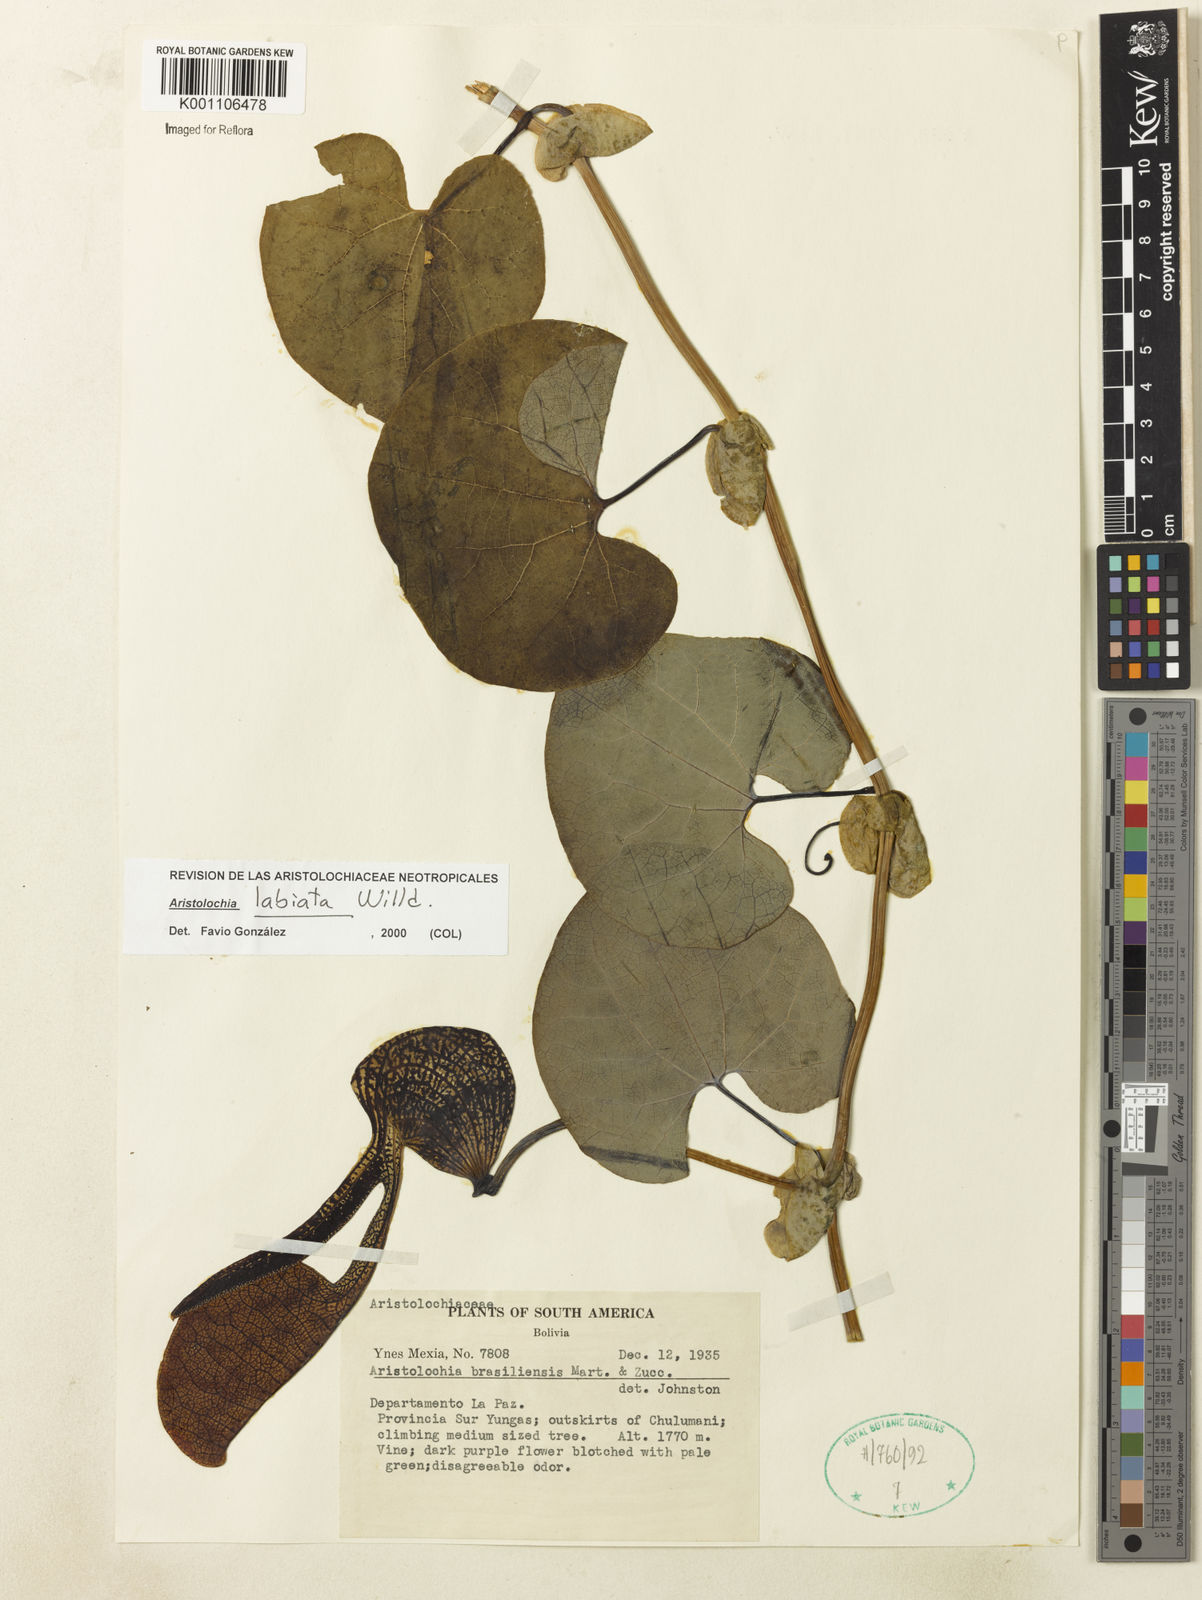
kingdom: Plantae
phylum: Tracheophyta
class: Magnoliopsida
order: Piperales
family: Aristolochiaceae
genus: Aristolochia
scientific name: Aristolochia labiata
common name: Mottled dutchman's pipe
